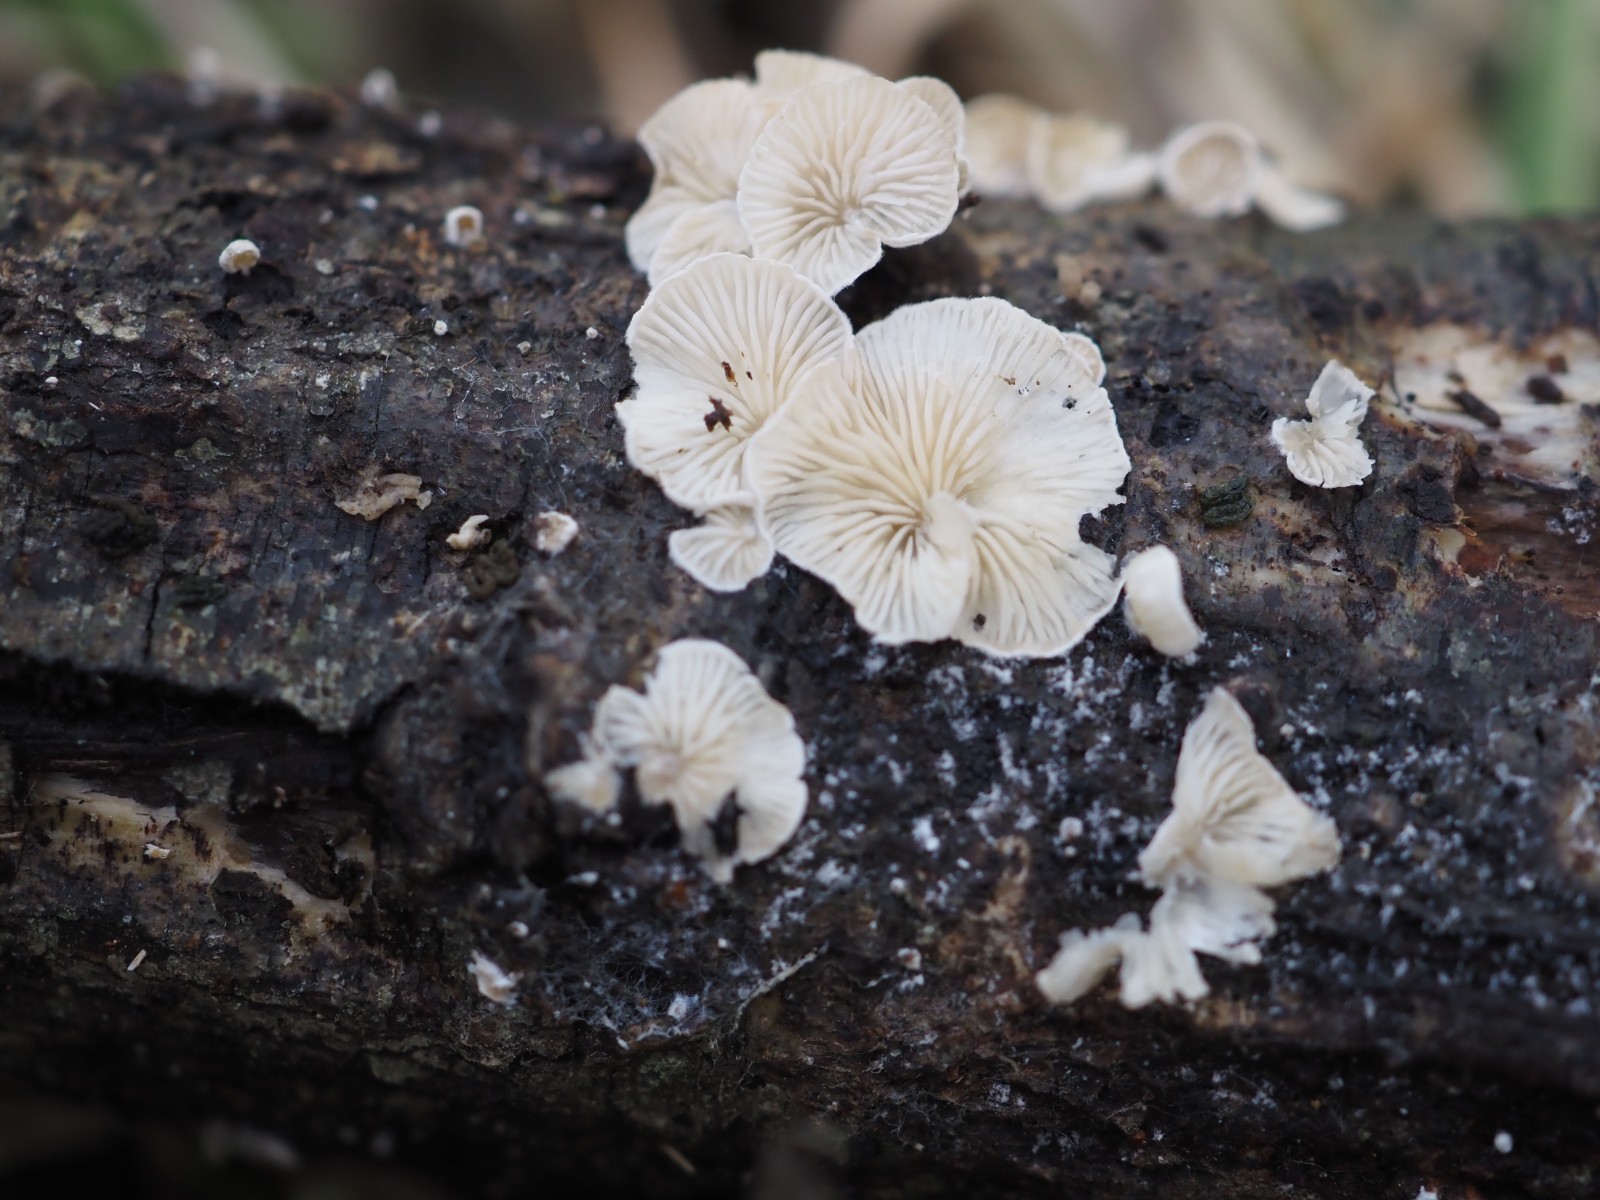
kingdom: Fungi
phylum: Basidiomycota
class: Agaricomycetes
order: Agaricales
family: Crepidotaceae
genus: Crepidotus
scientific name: Crepidotus epibryus
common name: førne-muslingesvamp
